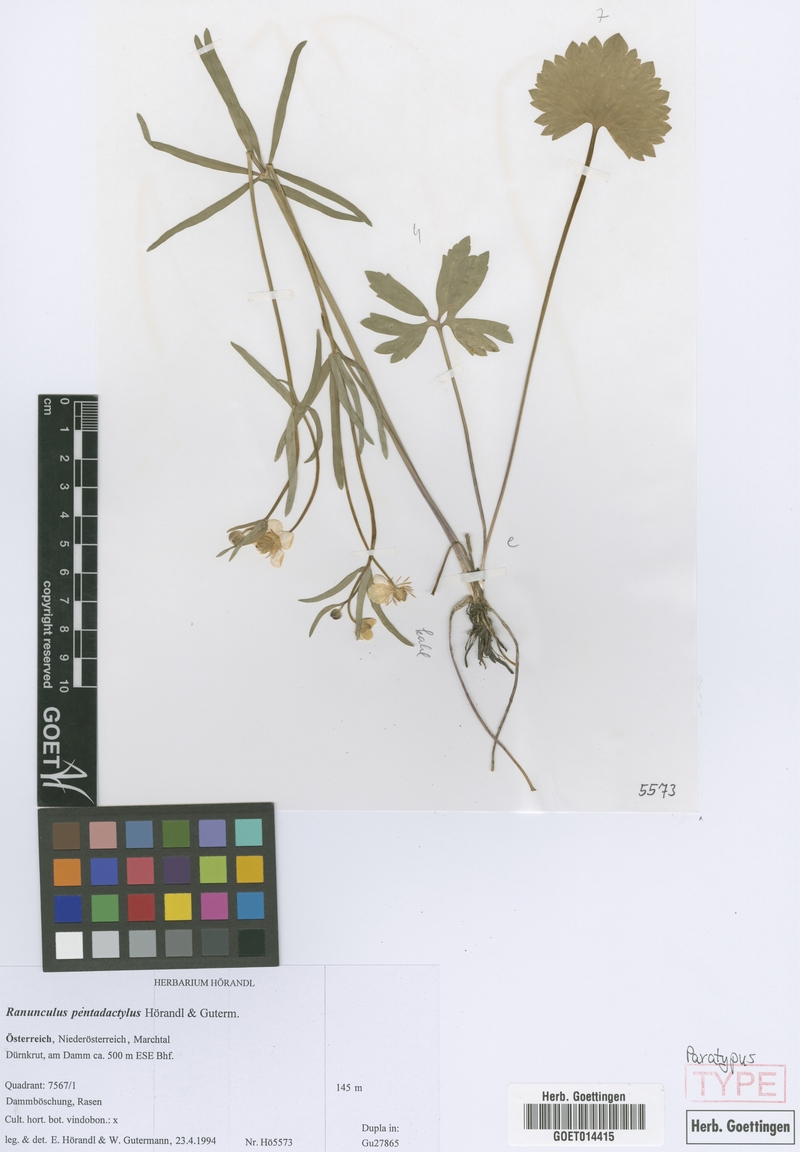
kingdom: Plantae
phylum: Tracheophyta
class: Magnoliopsida
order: Ranunculales
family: Ranunculaceae
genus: Ranunculus
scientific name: Ranunculus pentadactylus
